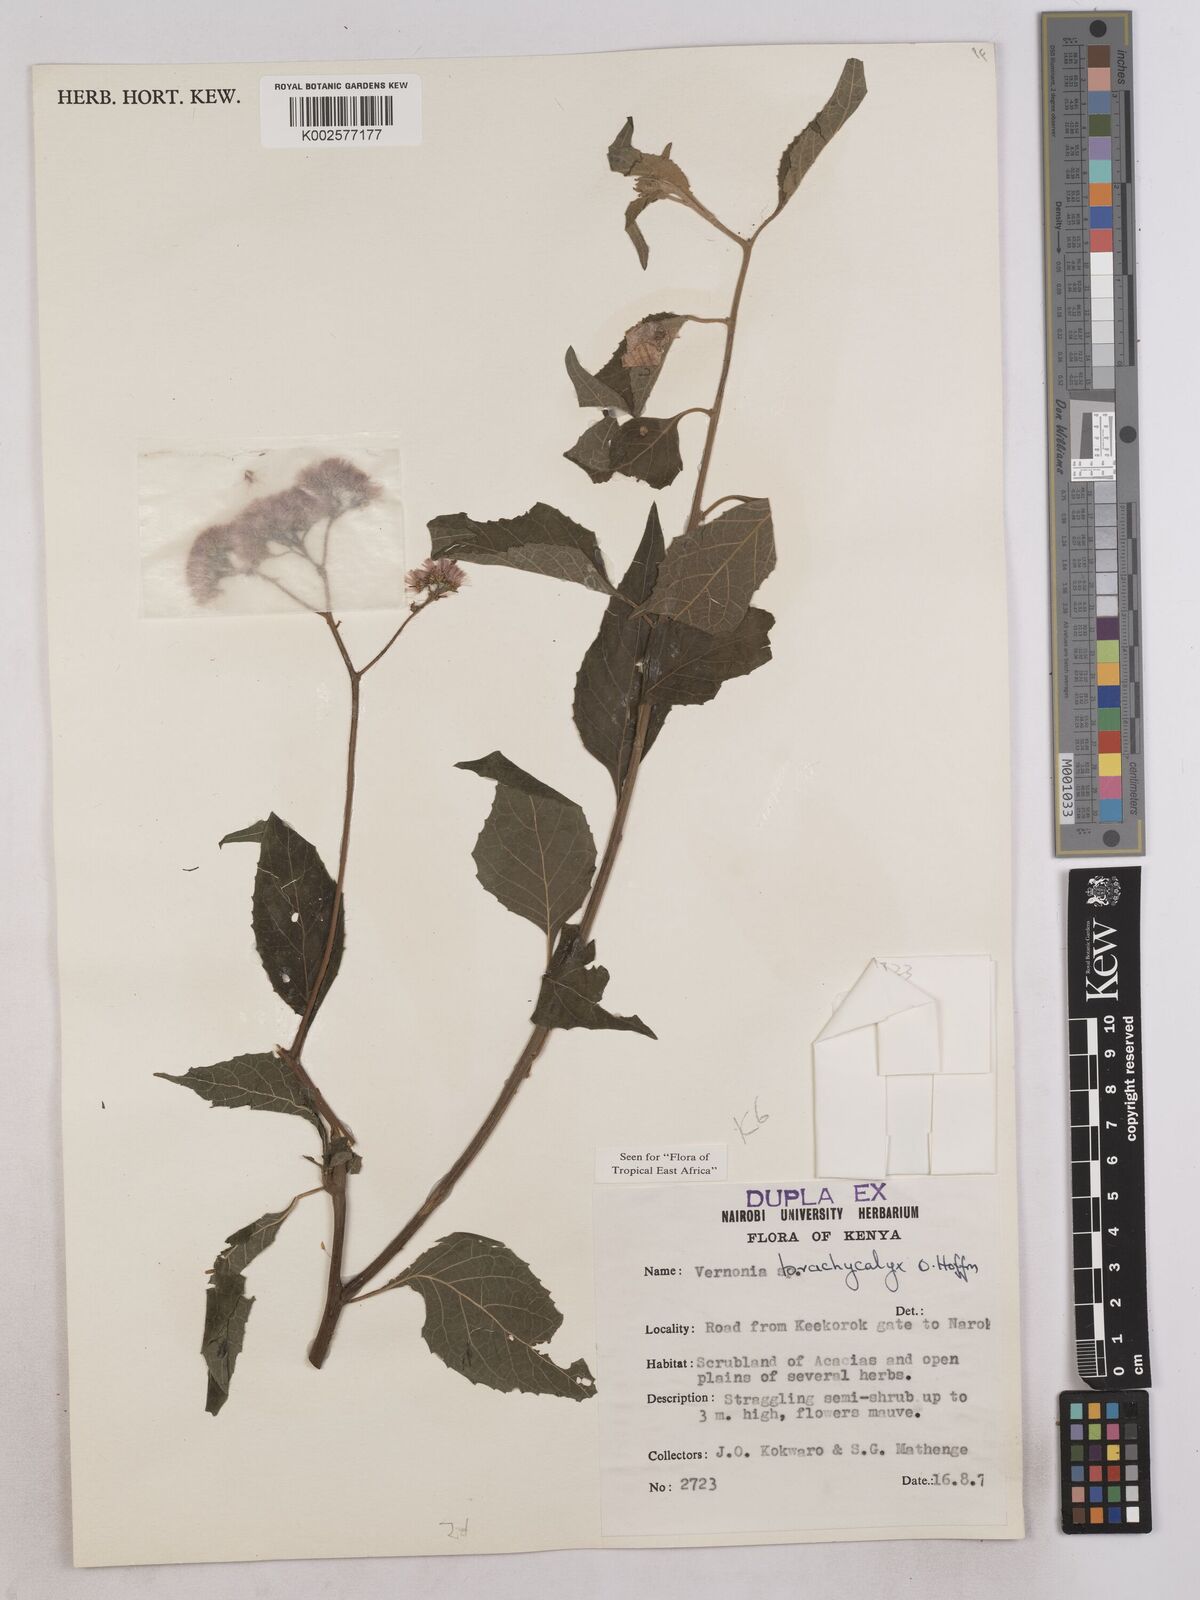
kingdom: Plantae
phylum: Tracheophyta
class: Magnoliopsida
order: Asterales
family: Asteraceae
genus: Hoffmannanthus
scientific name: Hoffmannanthus abbotianus
